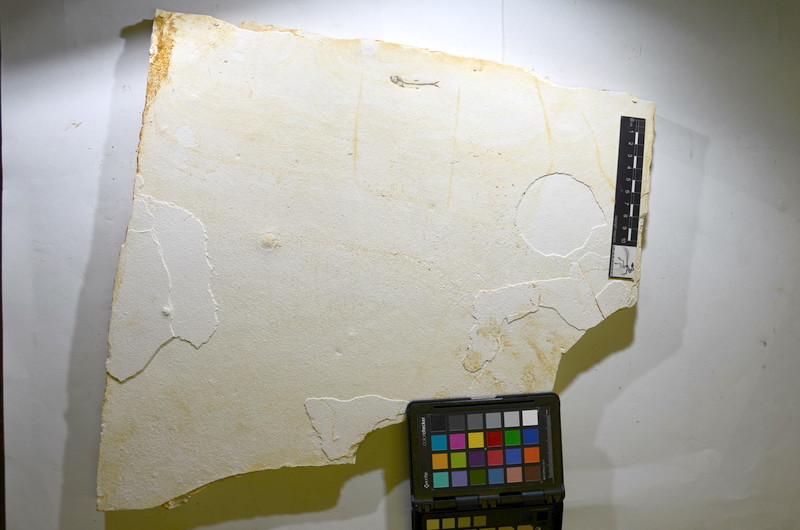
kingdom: Animalia
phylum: Chordata
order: Salmoniformes
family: Orthogonikleithridae
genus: Orthogonikleithrus
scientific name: Orthogonikleithrus hoelli
